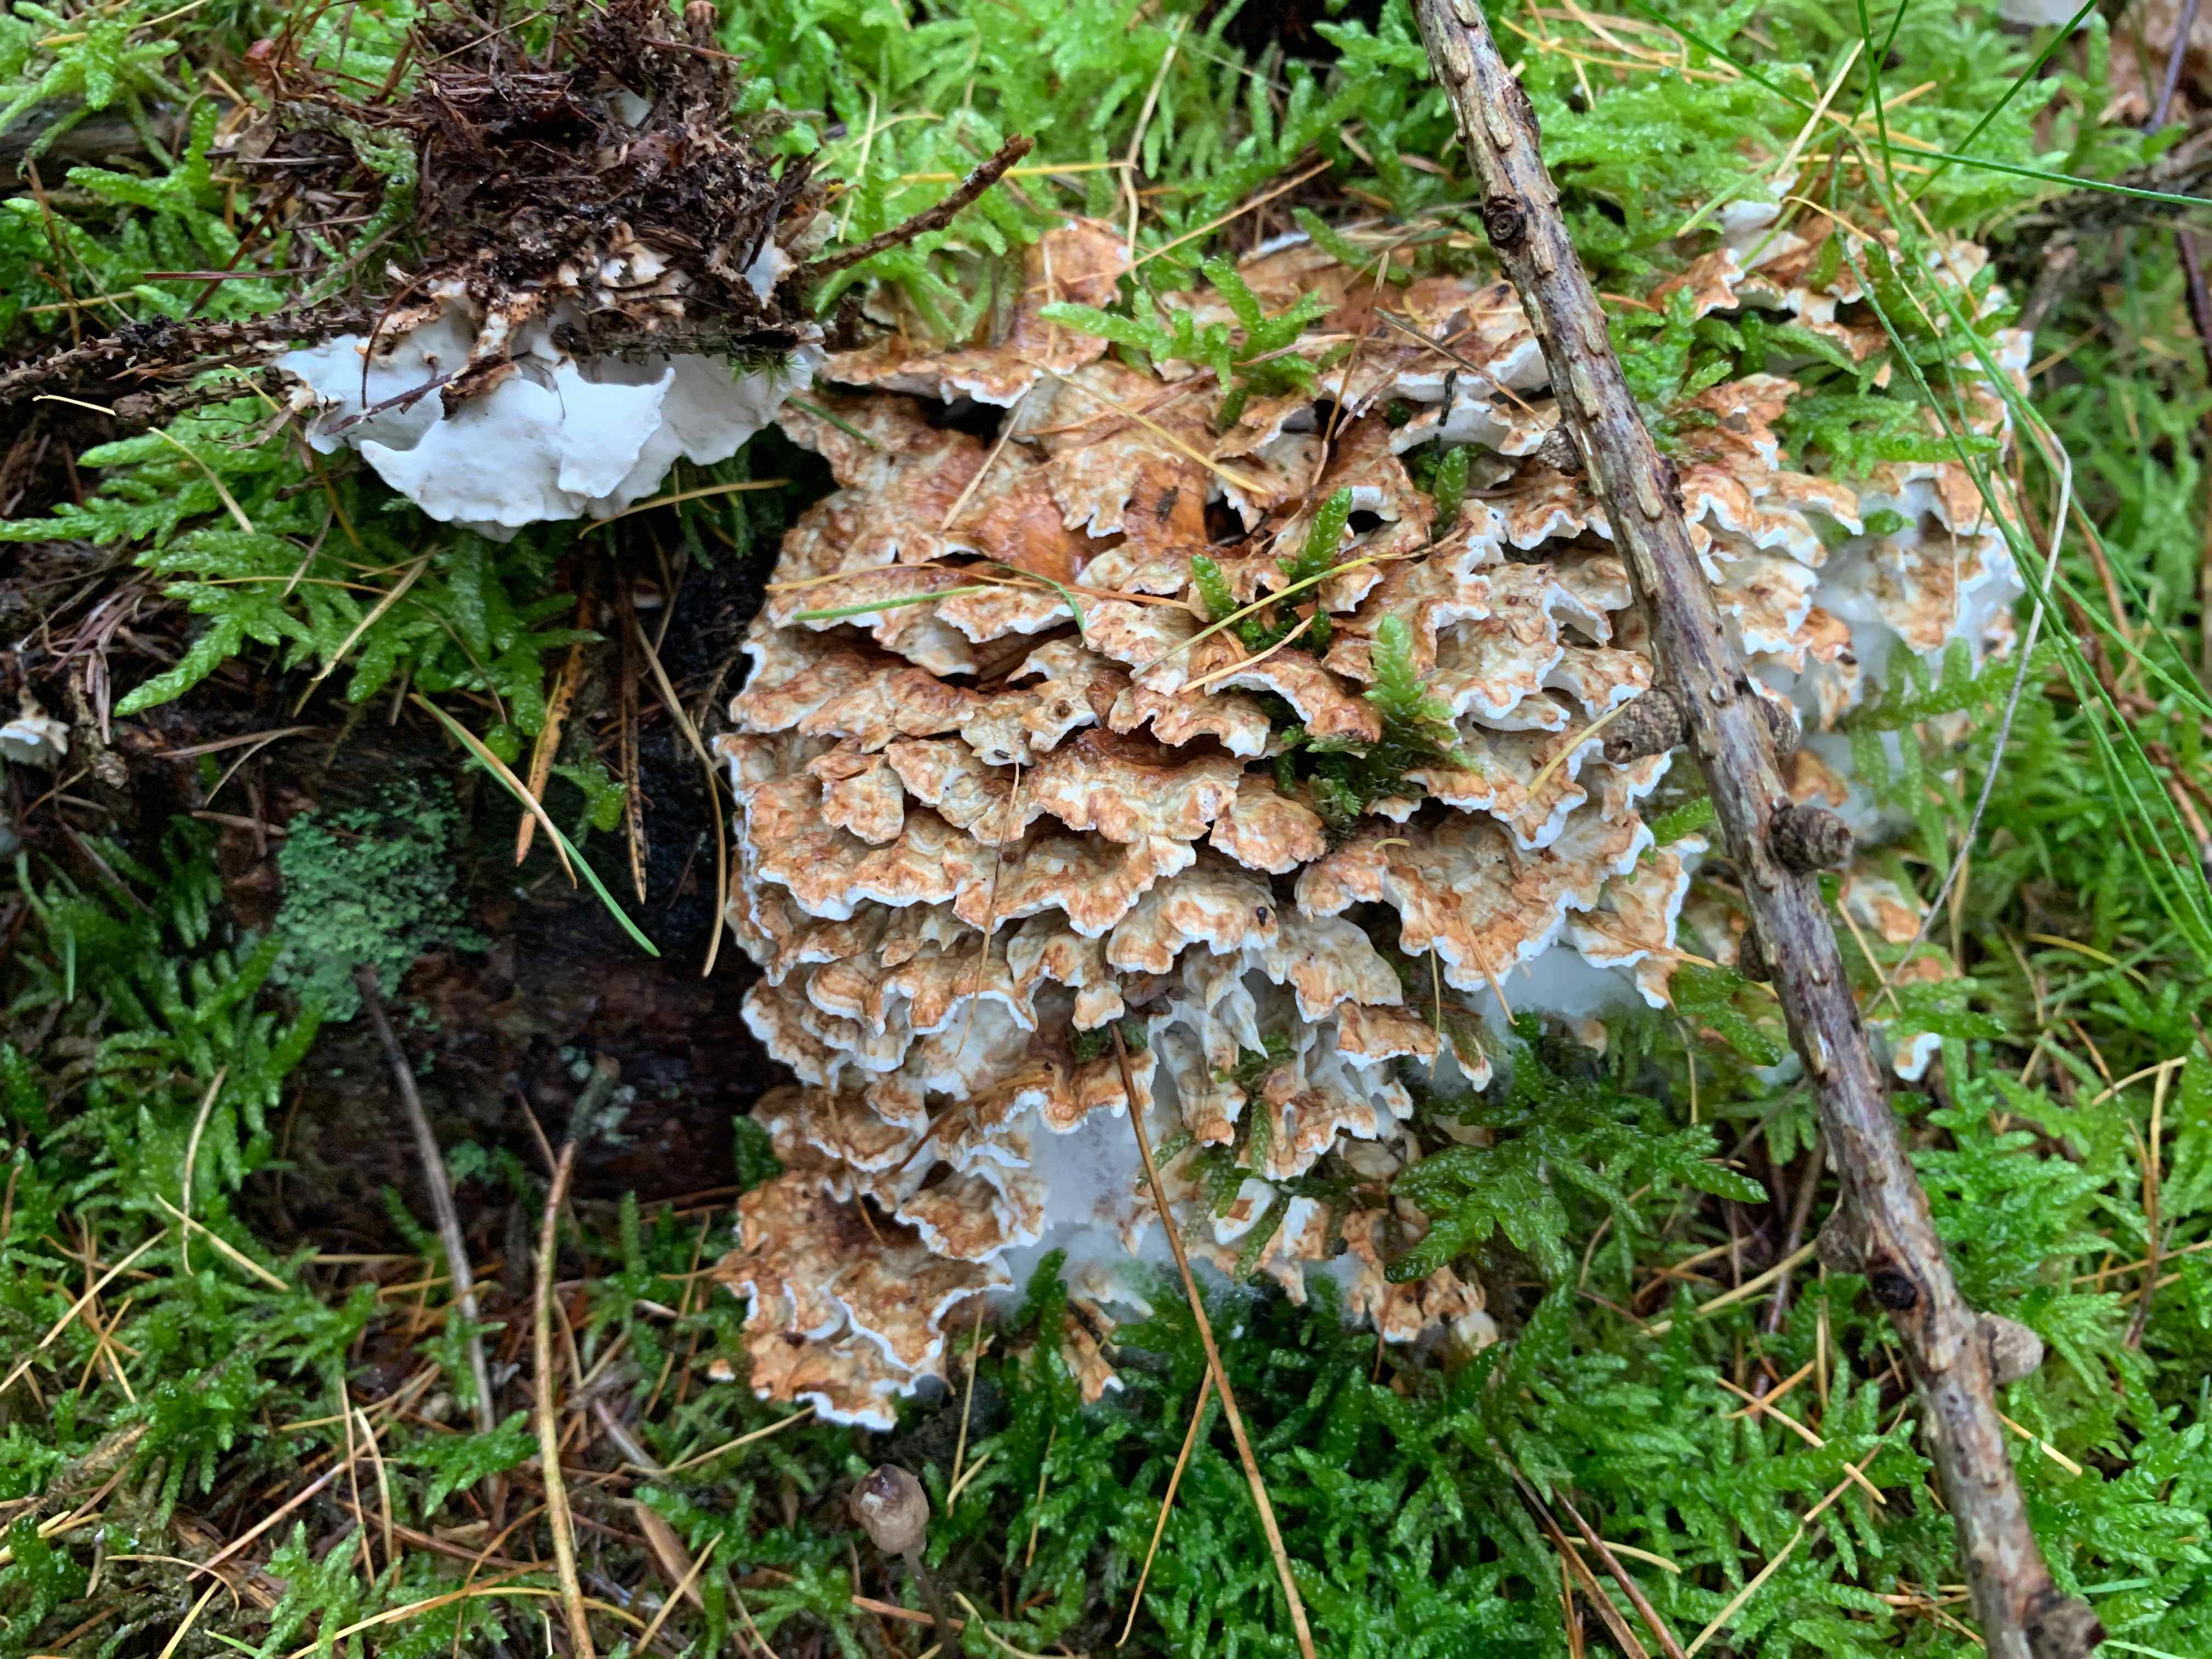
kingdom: Fungi
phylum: Basidiomycota
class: Agaricomycetes
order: Polyporales
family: Dacryobolaceae
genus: Oligoporus
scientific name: Oligoporus wakefieldiae
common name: række-kødporesvamp
